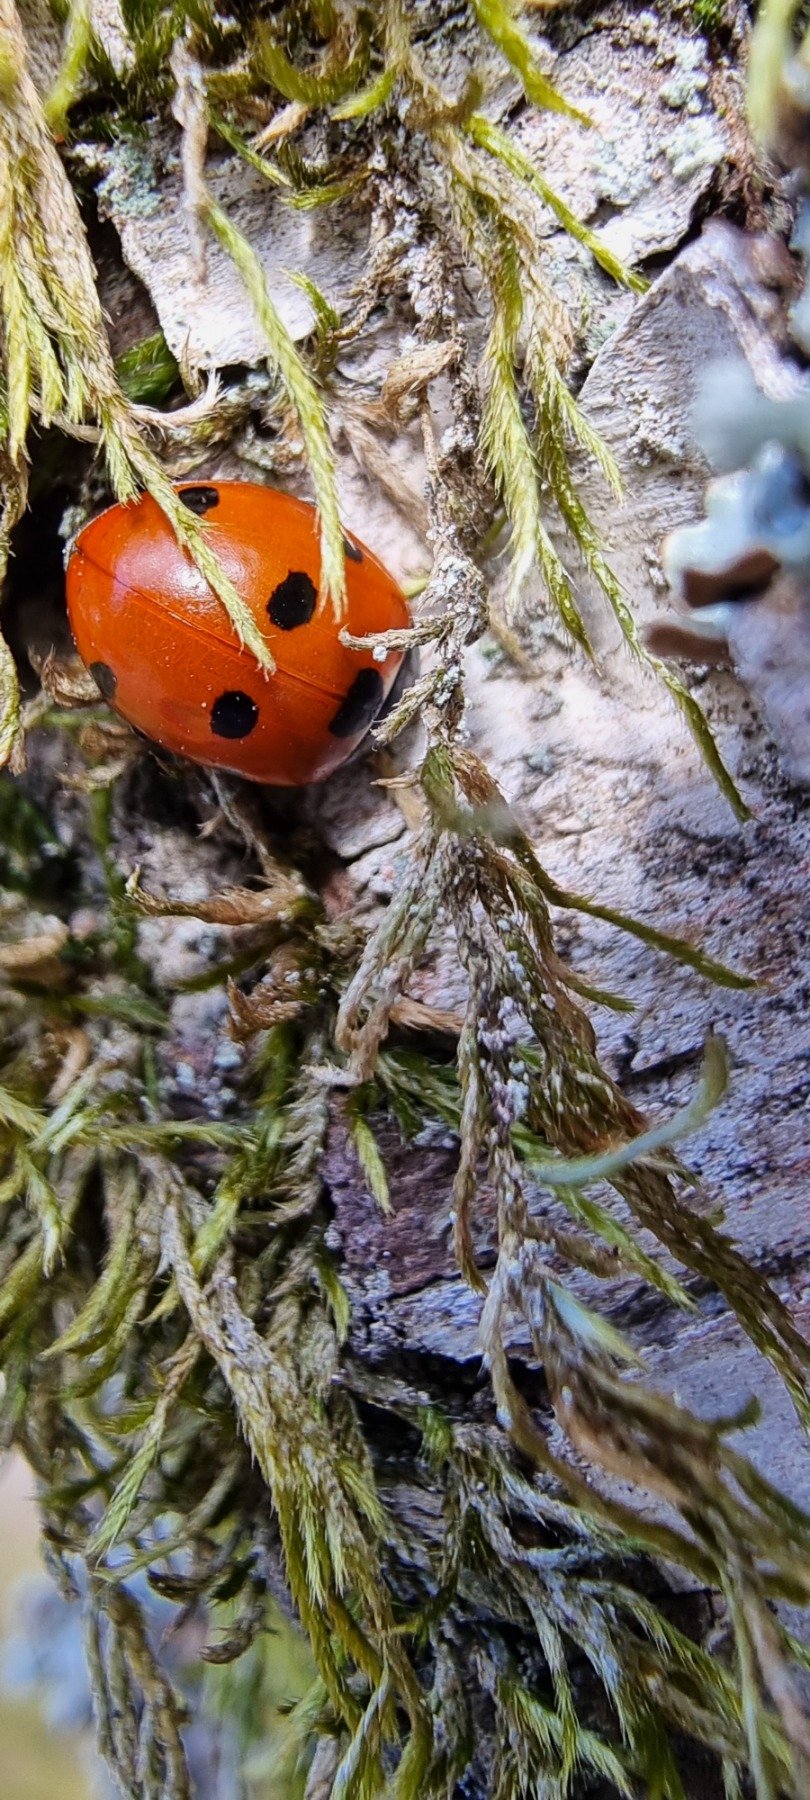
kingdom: Animalia
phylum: Arthropoda
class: Insecta
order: Coleoptera
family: Coccinellidae
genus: Coccinella
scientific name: Coccinella septempunctata
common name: Syvplettet mariehøne
